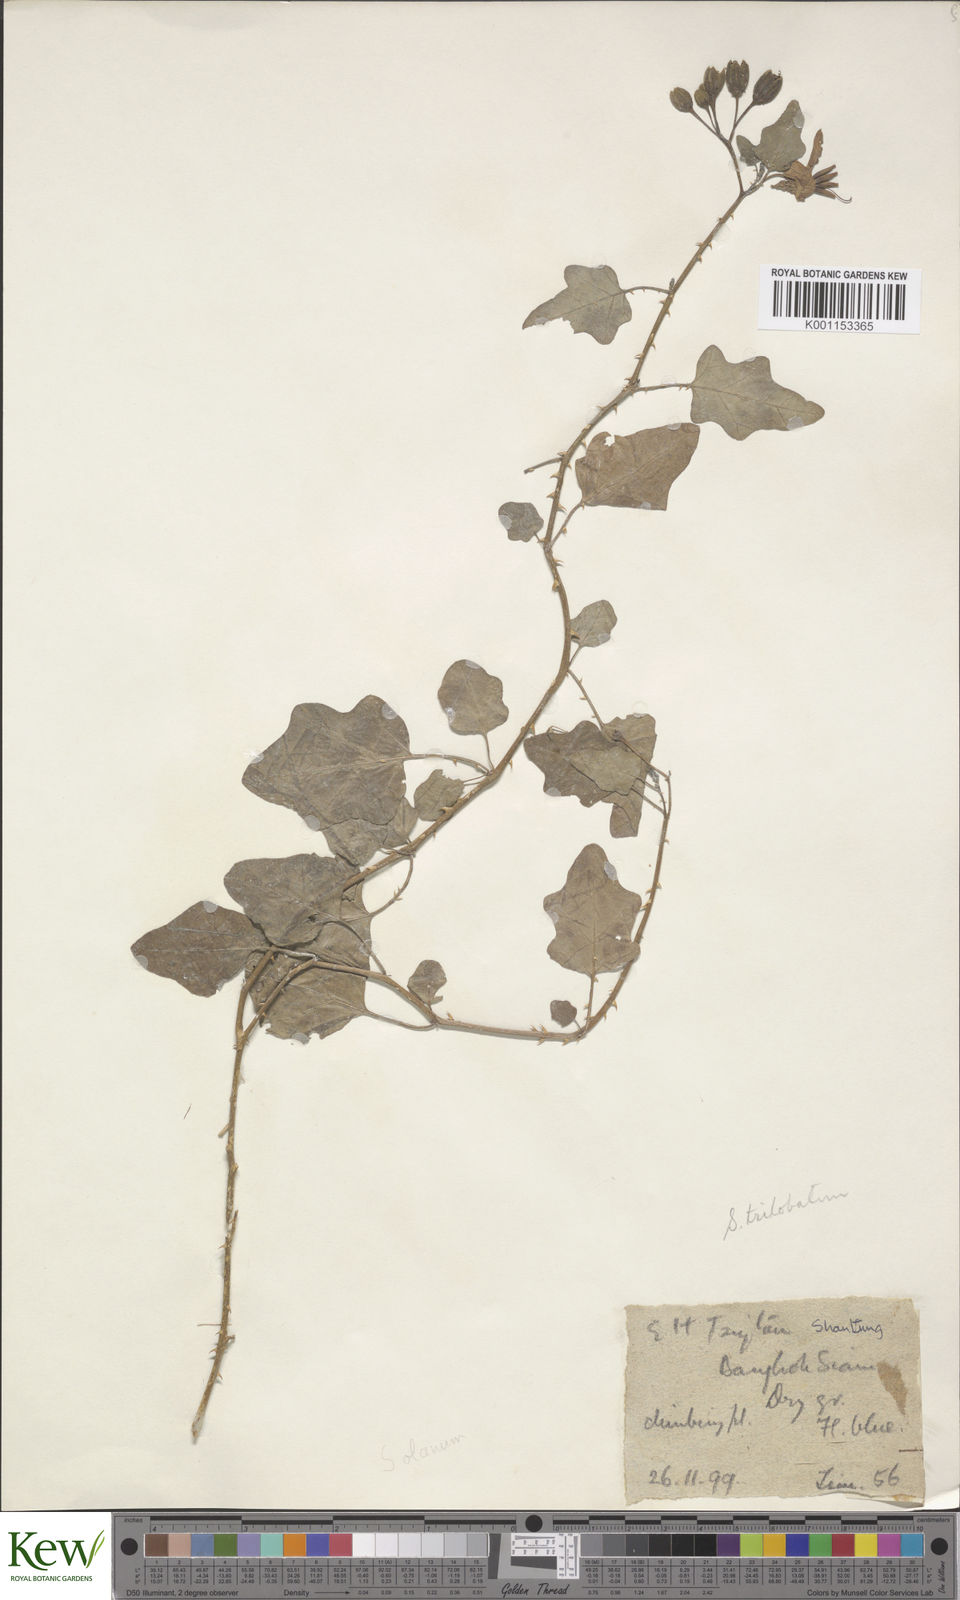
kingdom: Plantae
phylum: Tracheophyta
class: Magnoliopsida
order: Solanales
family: Solanaceae
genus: Solanum
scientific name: Solanum trilobatum
